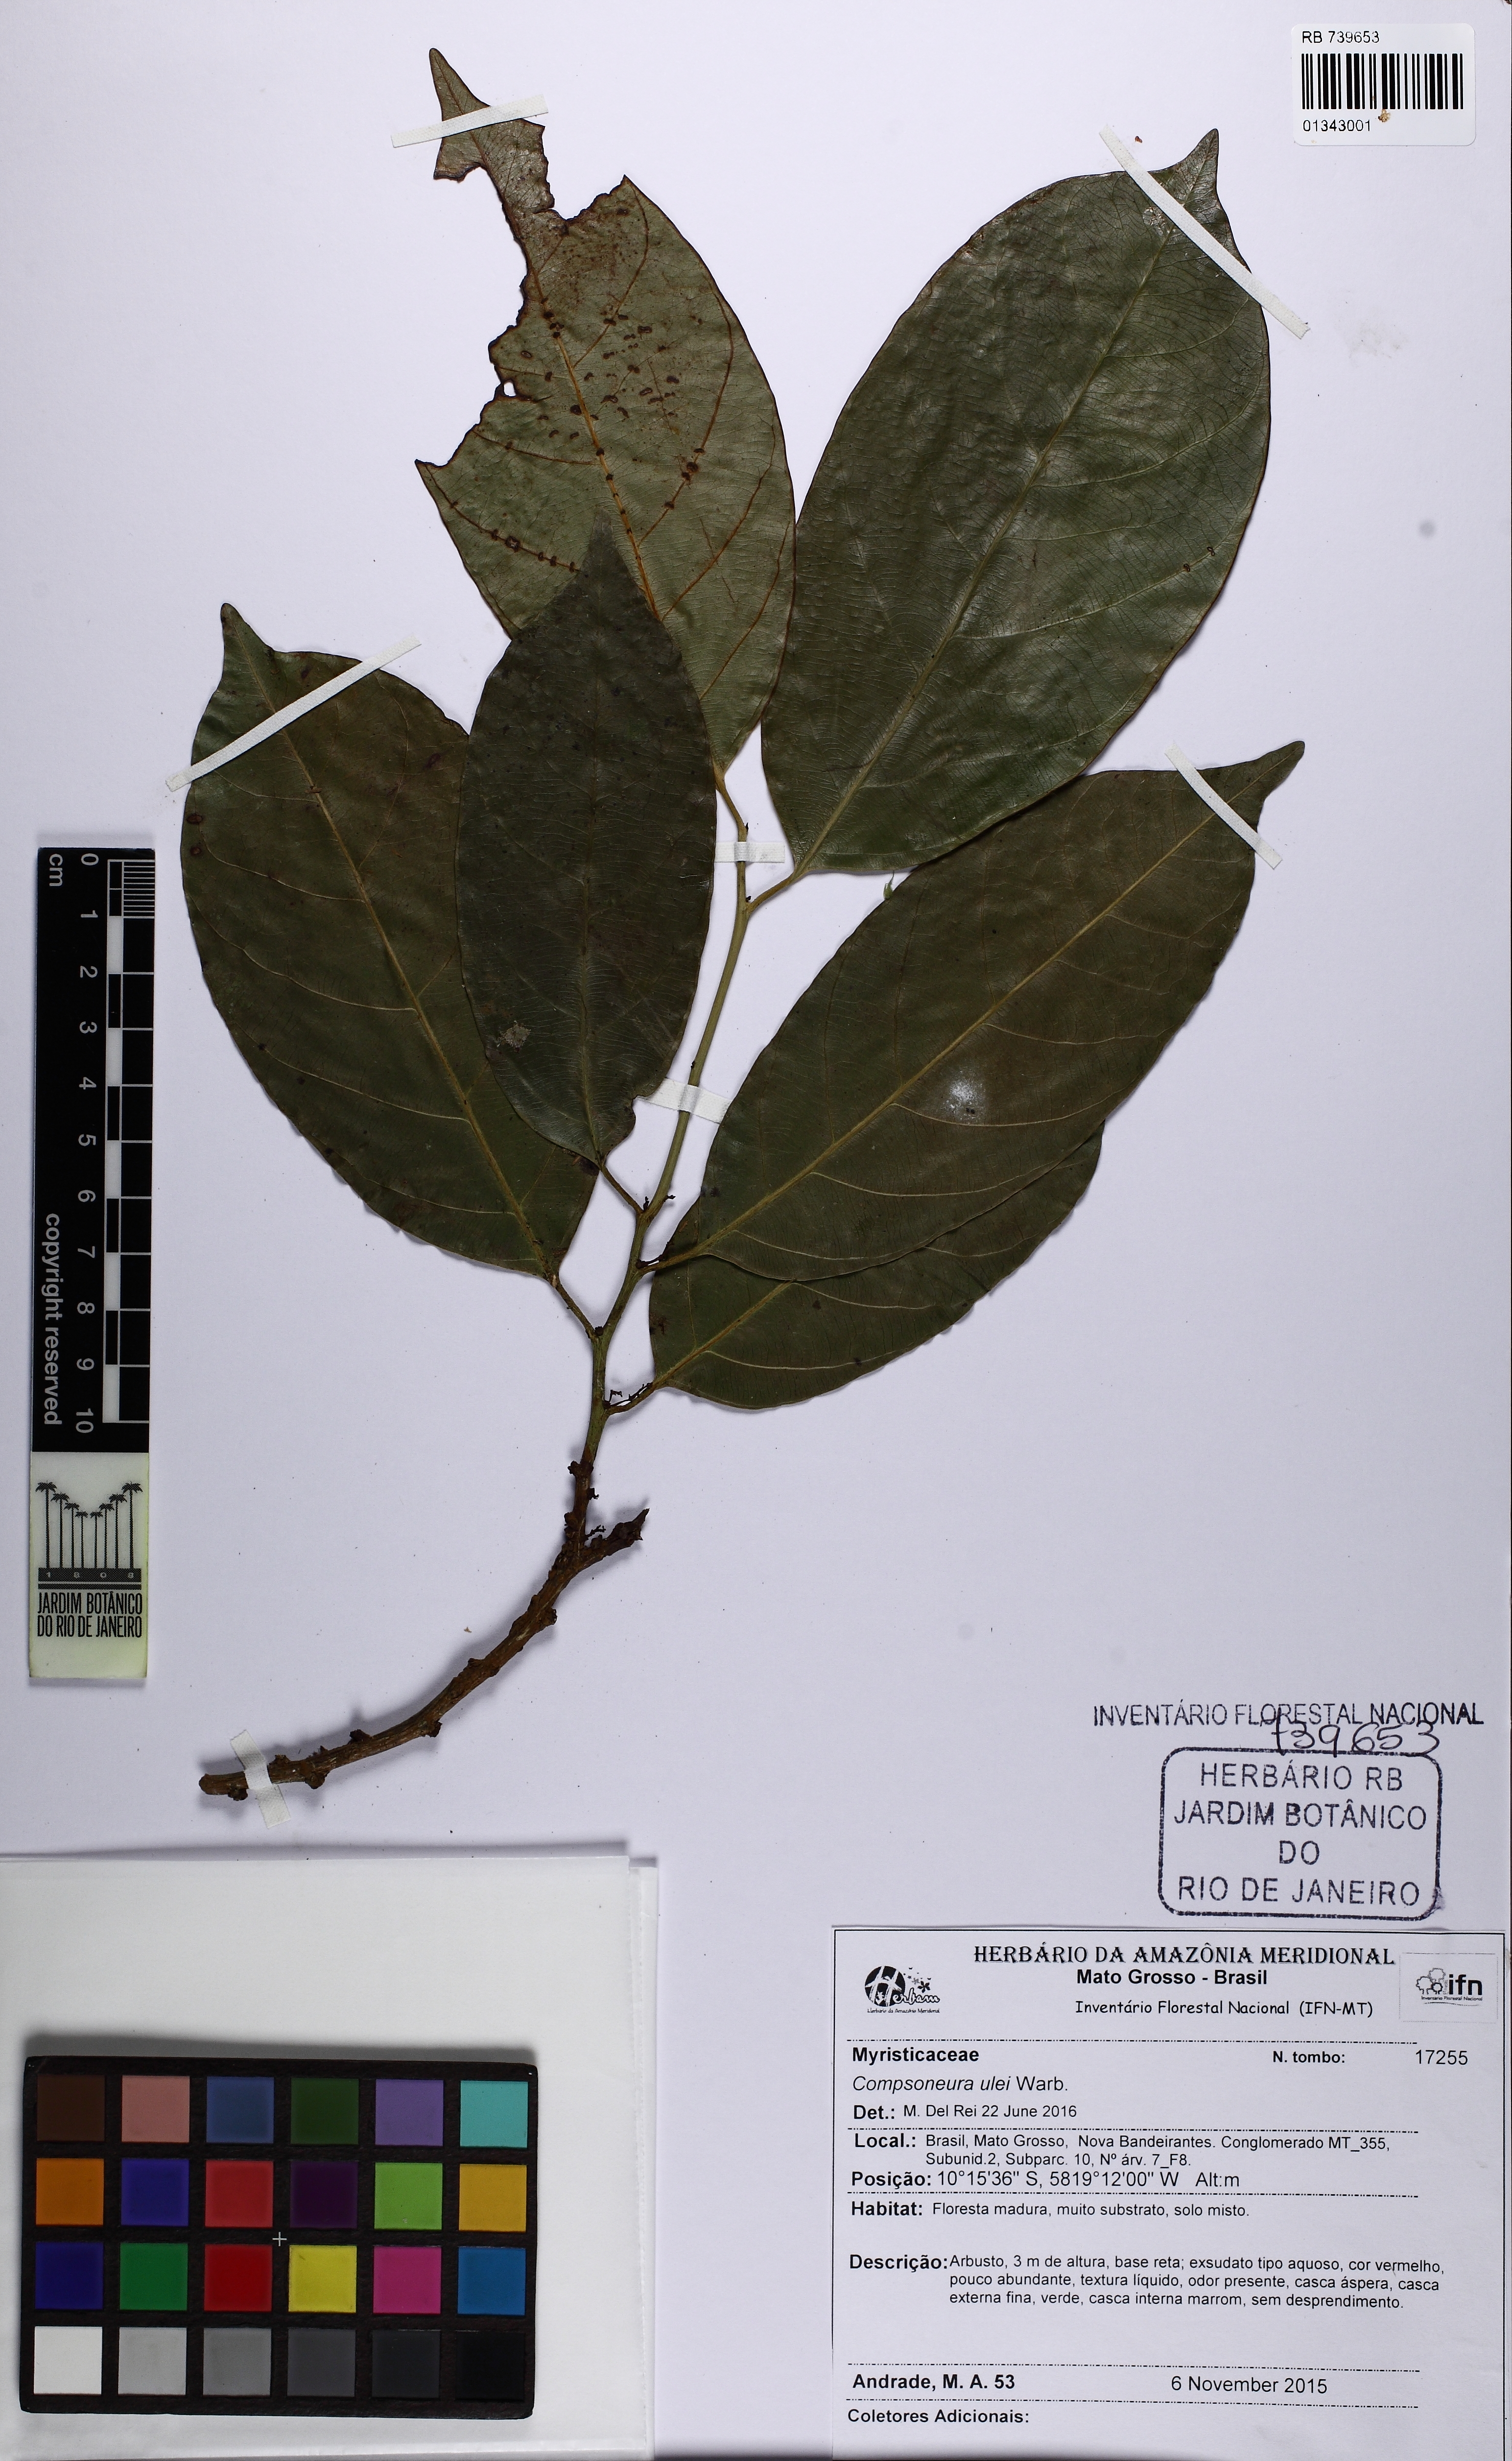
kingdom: Plantae
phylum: Tracheophyta
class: Magnoliopsida
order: Magnoliales
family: Myristicaceae
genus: Compsoneura
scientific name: Compsoneura ulei
